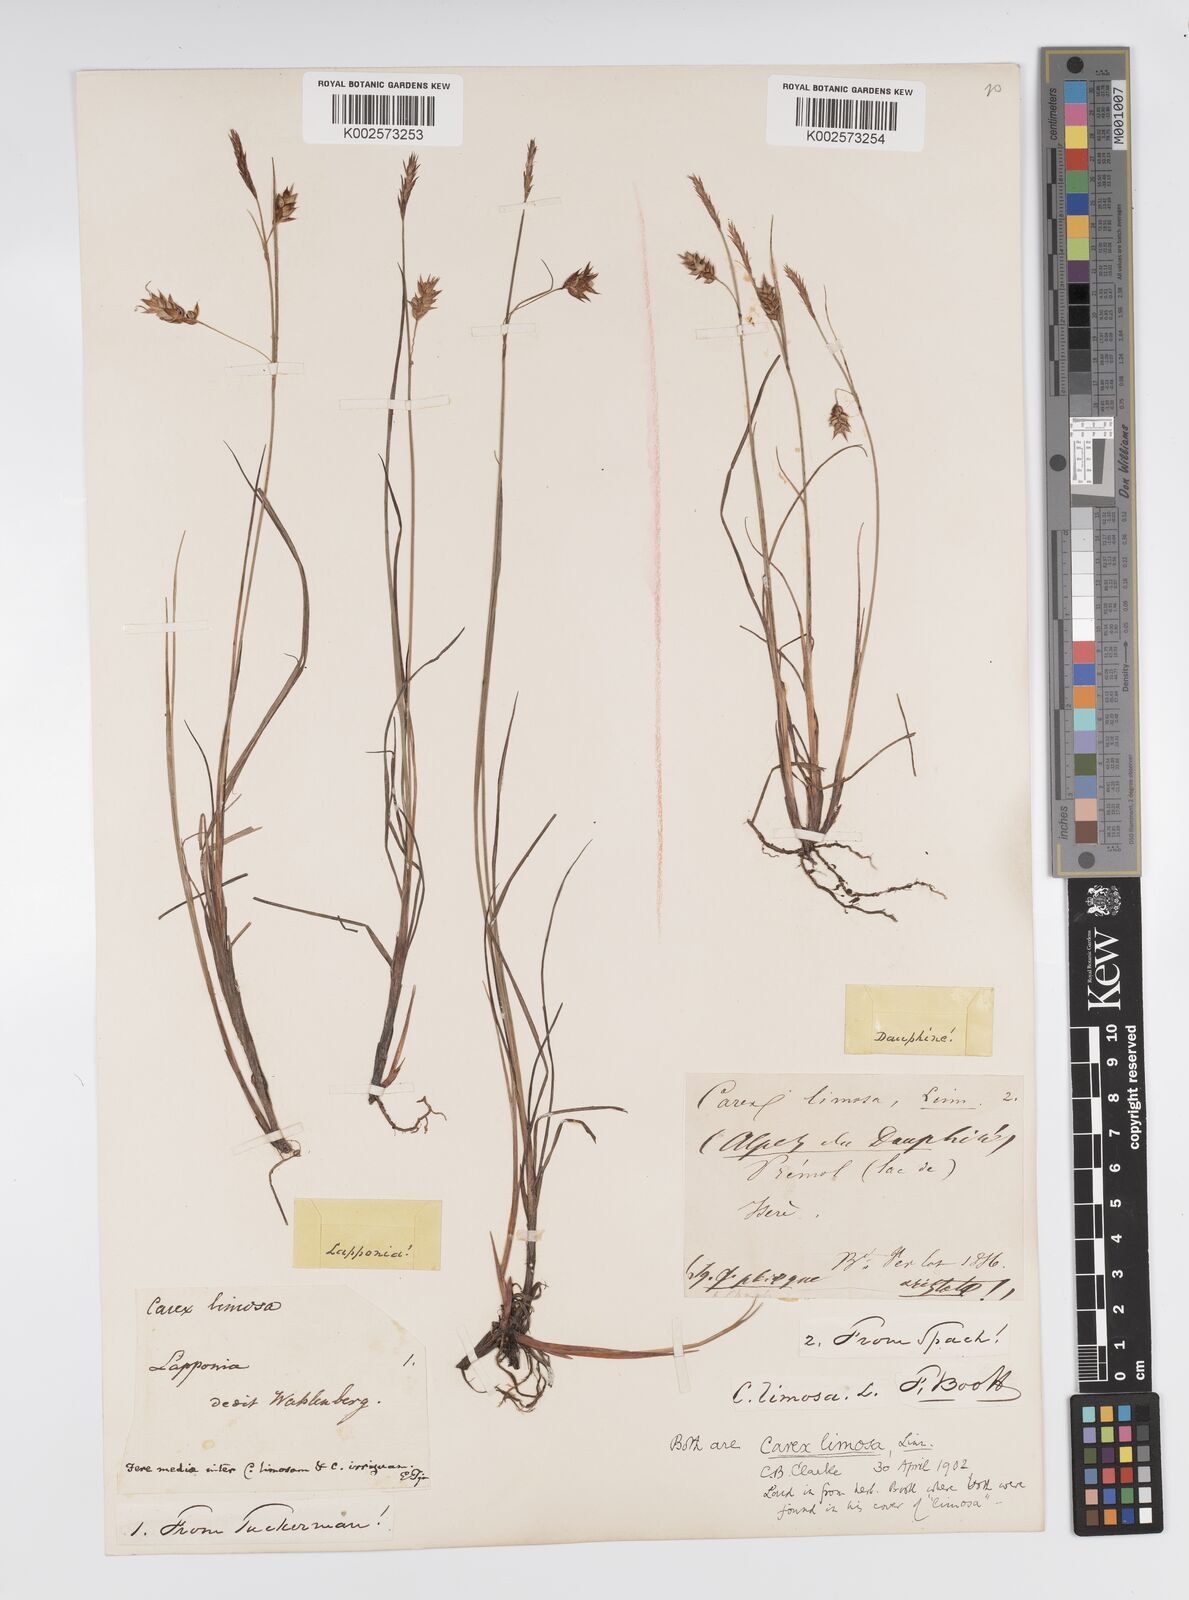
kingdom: Plantae
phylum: Tracheophyta
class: Liliopsida
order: Poales
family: Cyperaceae
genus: Carex
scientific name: Carex magellanica
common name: Bog sedge
